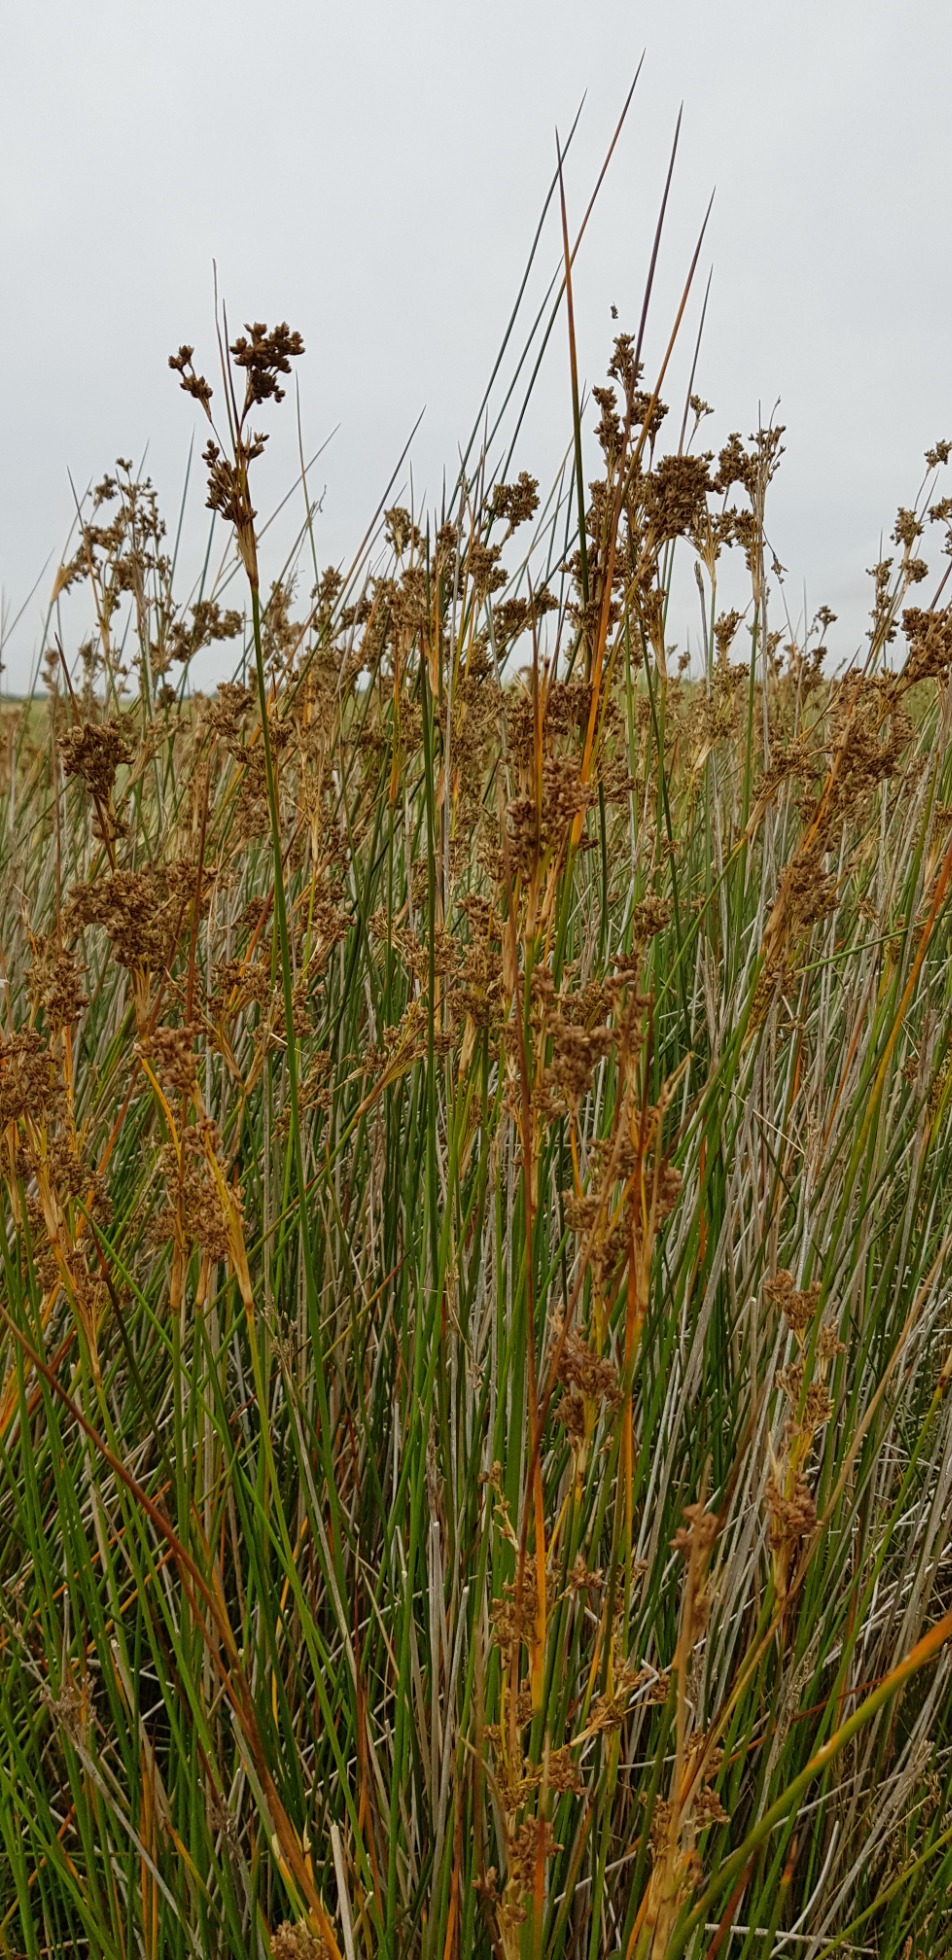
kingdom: Plantae
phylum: Tracheophyta
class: Liliopsida
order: Poales
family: Juncaceae
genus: Juncus
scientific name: Juncus maritimus
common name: Strand-siv
